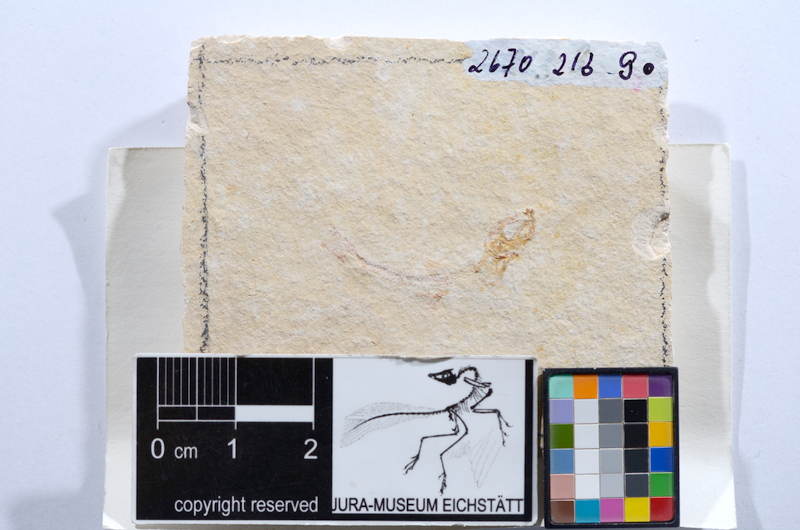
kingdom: Animalia
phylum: Chordata
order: Salmoniformes
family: Orthogonikleithridae
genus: Leptolepides
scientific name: Leptolepides sprattiformis
